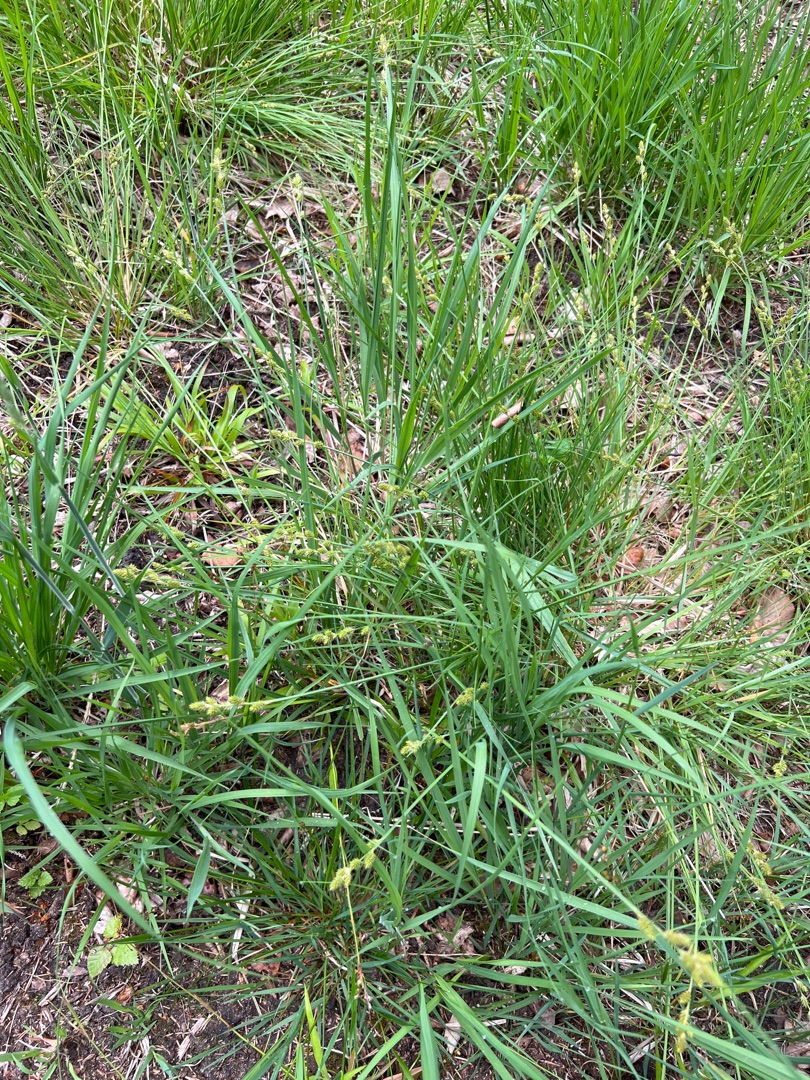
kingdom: Plantae
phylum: Tracheophyta
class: Liliopsida
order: Poales
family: Cyperaceae
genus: Carex
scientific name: Carex canescens
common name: Grå star
